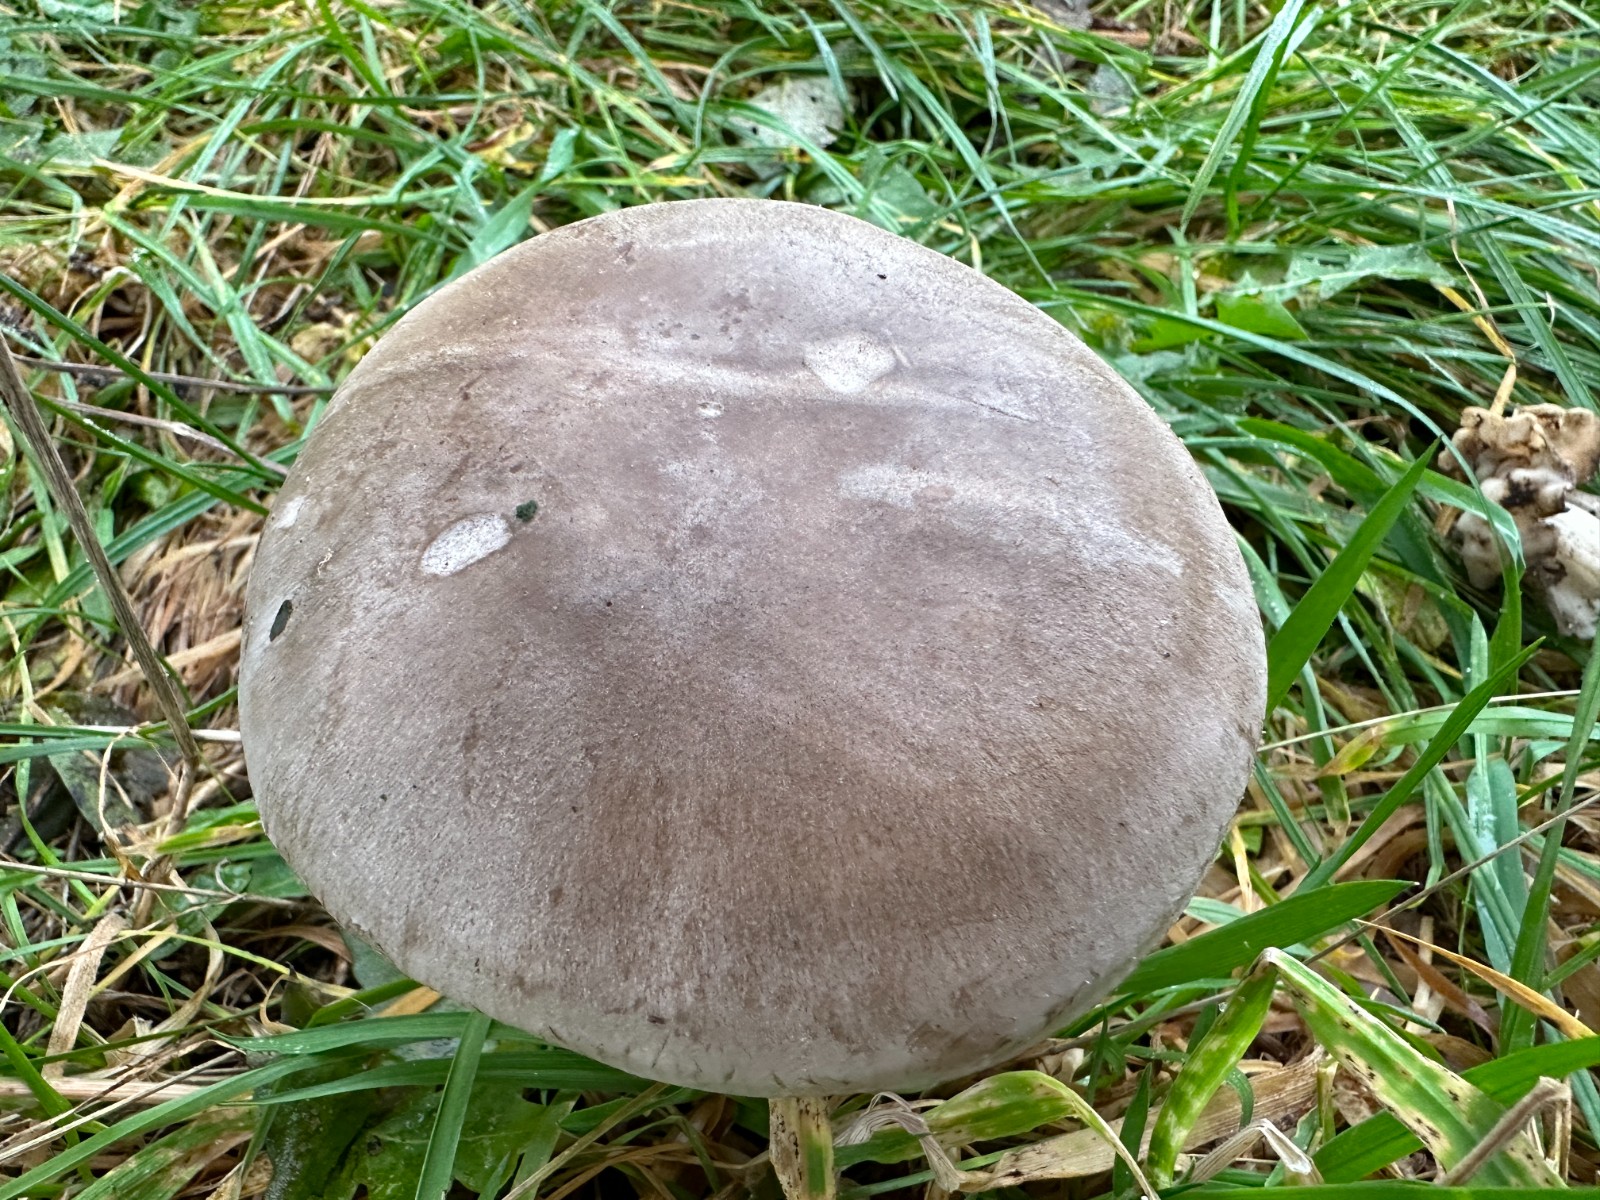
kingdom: Fungi
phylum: Basidiomycota
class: Agaricomycetes
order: Agaricales
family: Tricholomataceae
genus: Clitocybe
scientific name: Clitocybe nebularis
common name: tåge-tragthat
